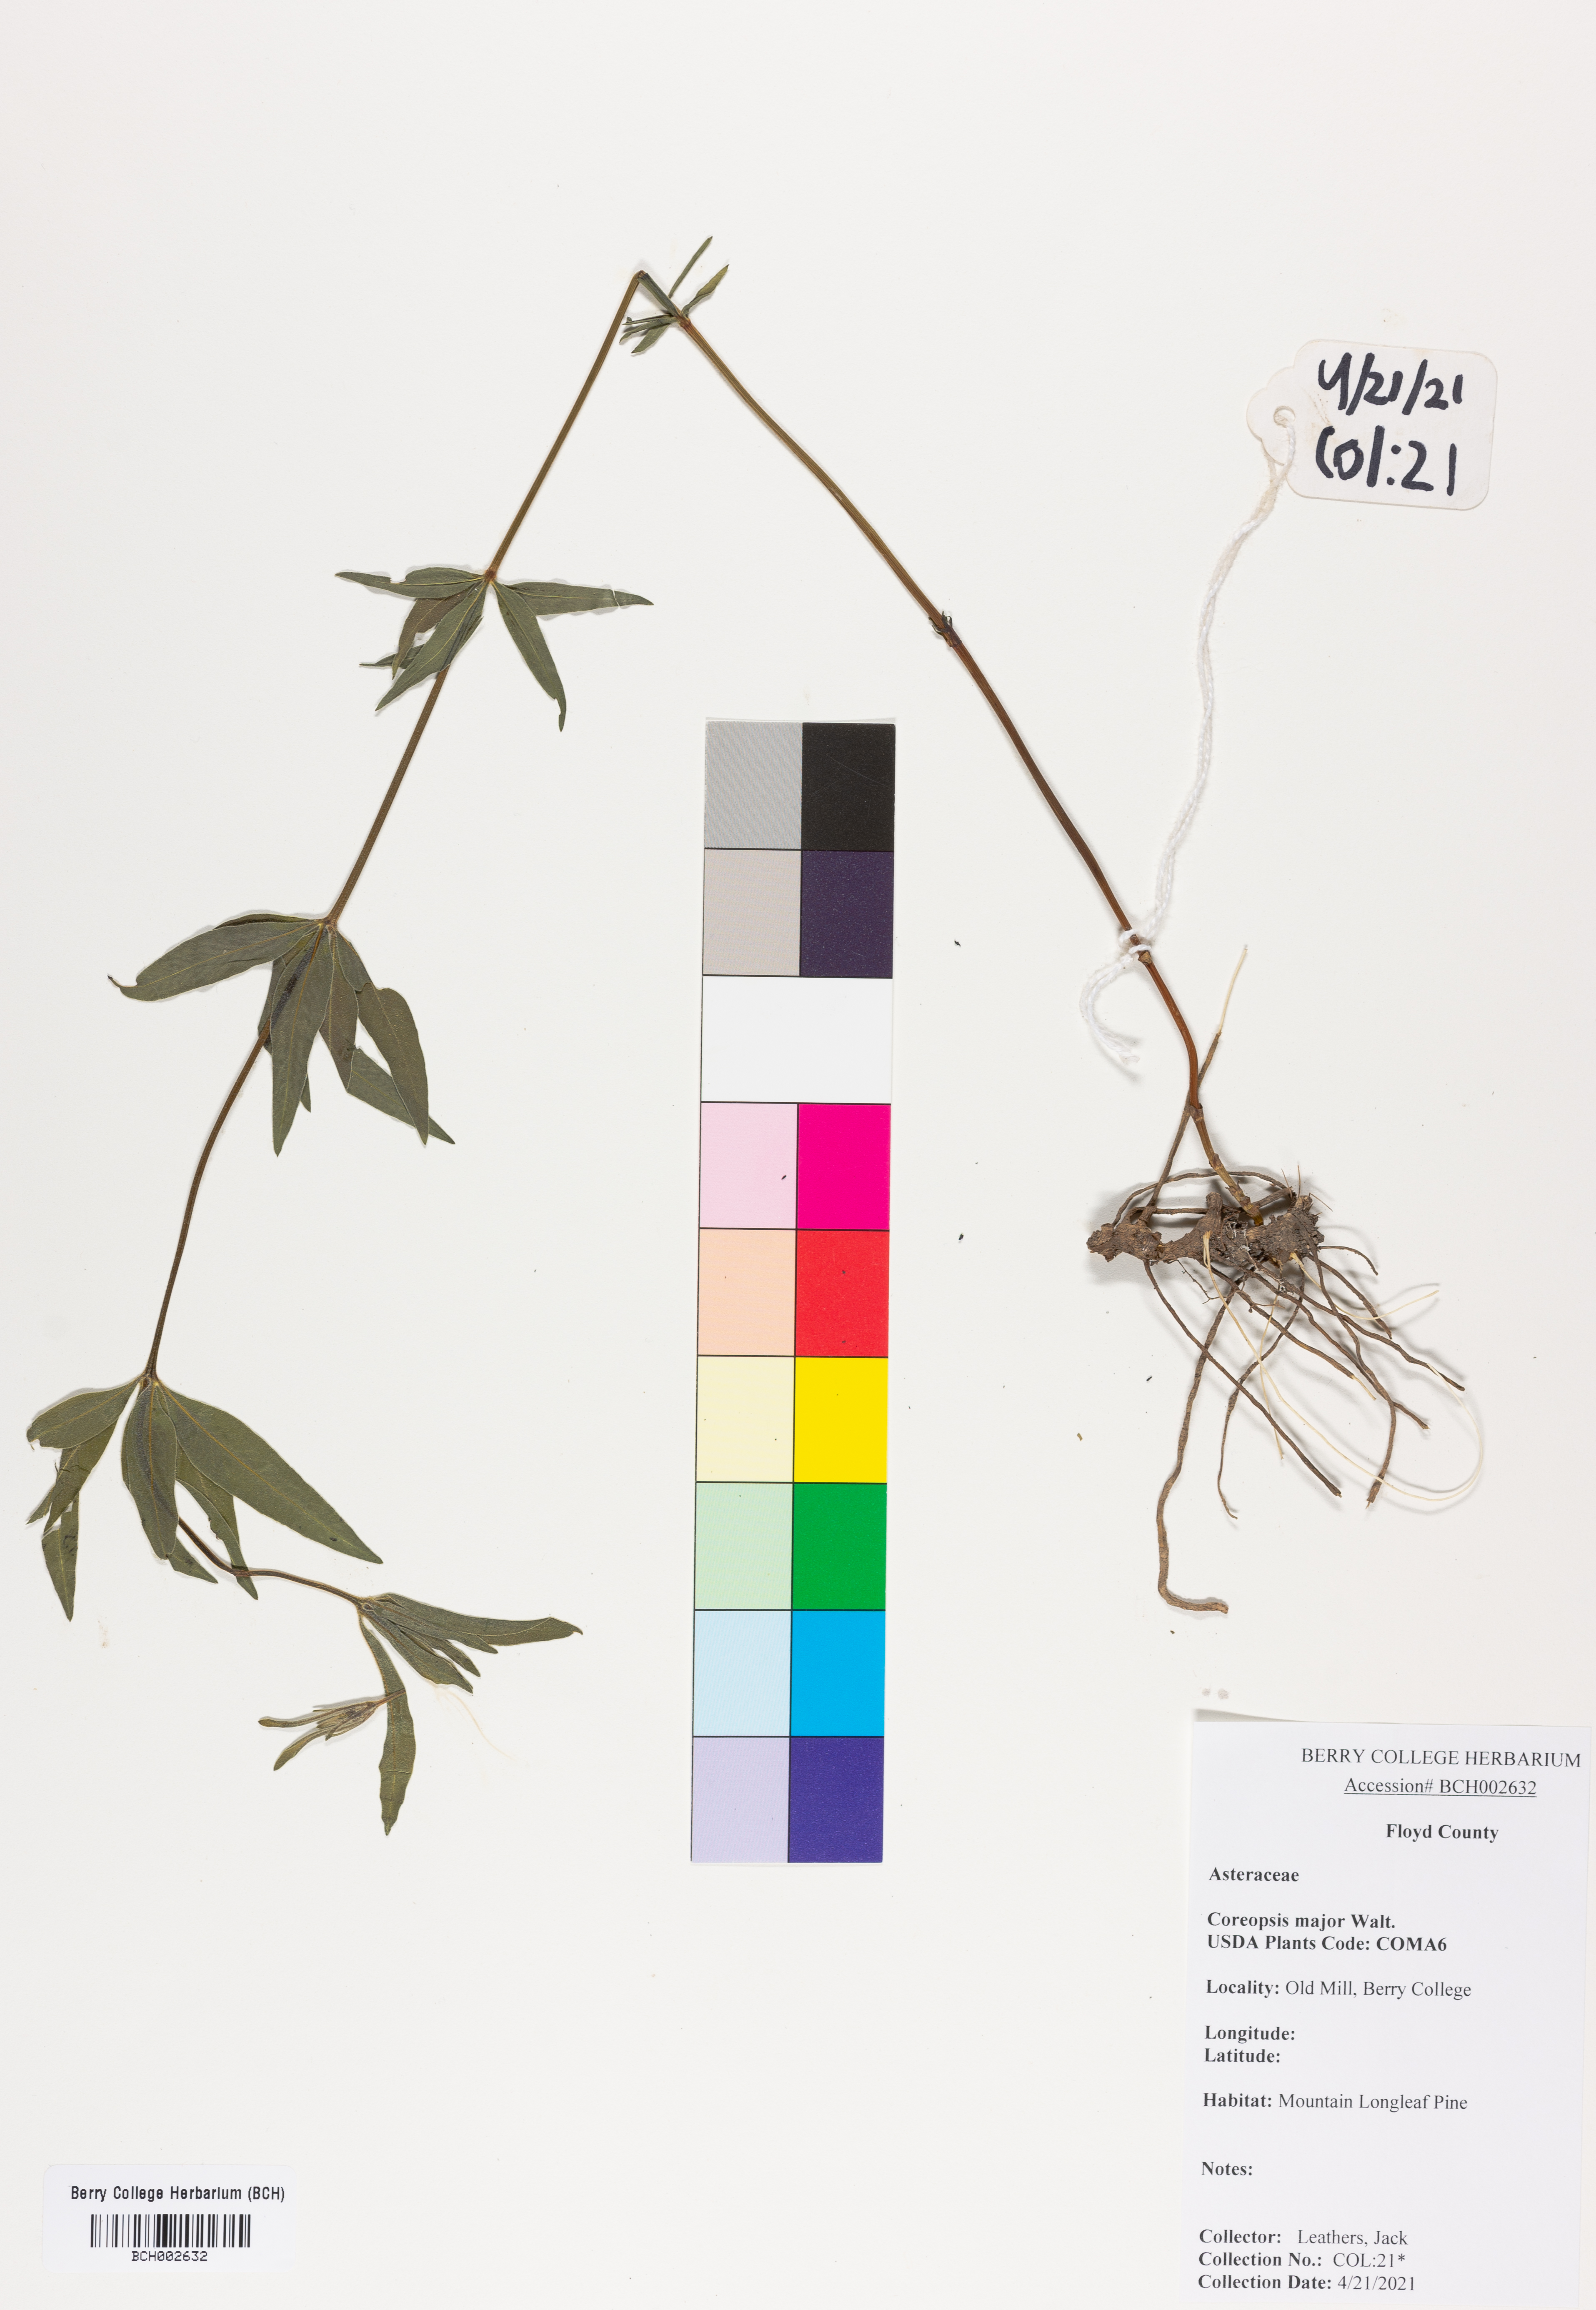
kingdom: Plantae
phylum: Tracheophyta
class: Magnoliopsida
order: Asterales
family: Asteraceae
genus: Coreopsis
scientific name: Coreopsis major
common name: Forest tickseed
